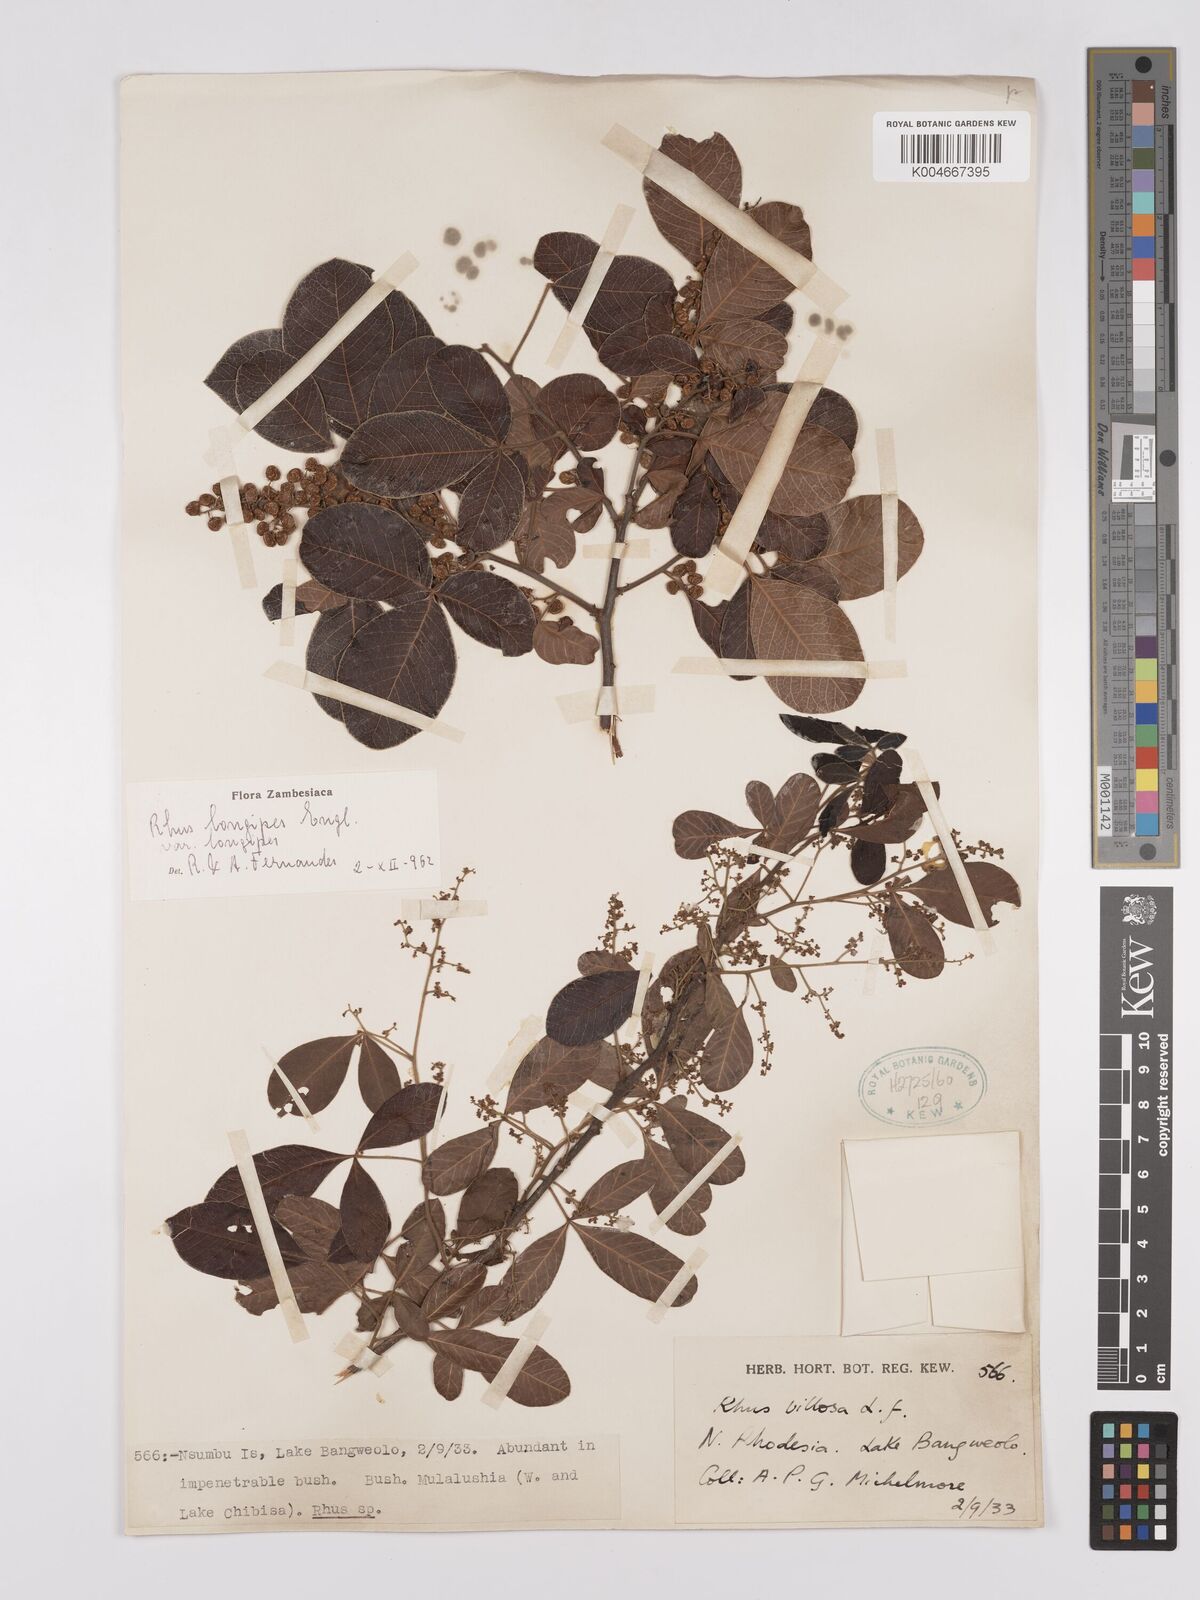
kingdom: Plantae
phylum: Tracheophyta
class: Magnoliopsida
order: Sapindales
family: Anacardiaceae
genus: Searsia
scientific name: Searsia longipes
